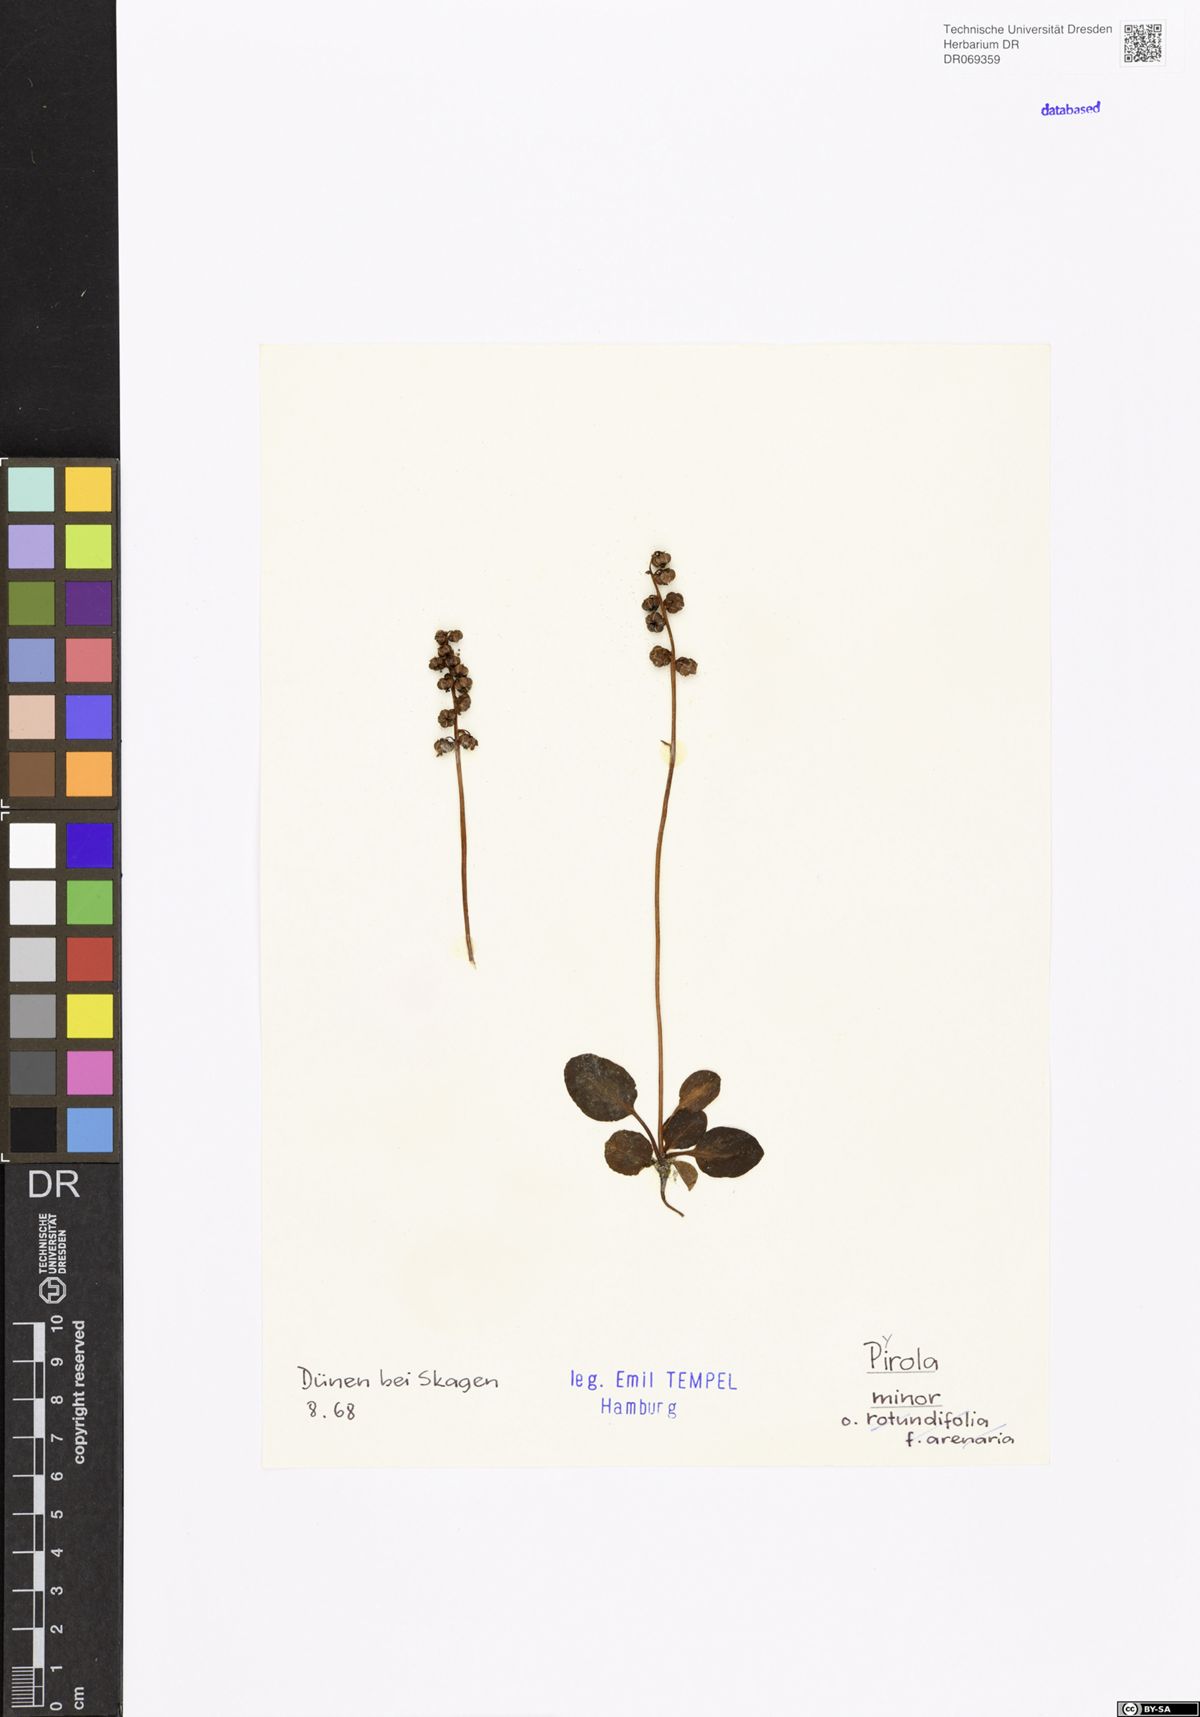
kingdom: Plantae
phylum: Tracheophyta
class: Magnoliopsida
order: Ericales
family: Ericaceae
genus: Pyrola
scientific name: Pyrola minor
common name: Common wintergreen
